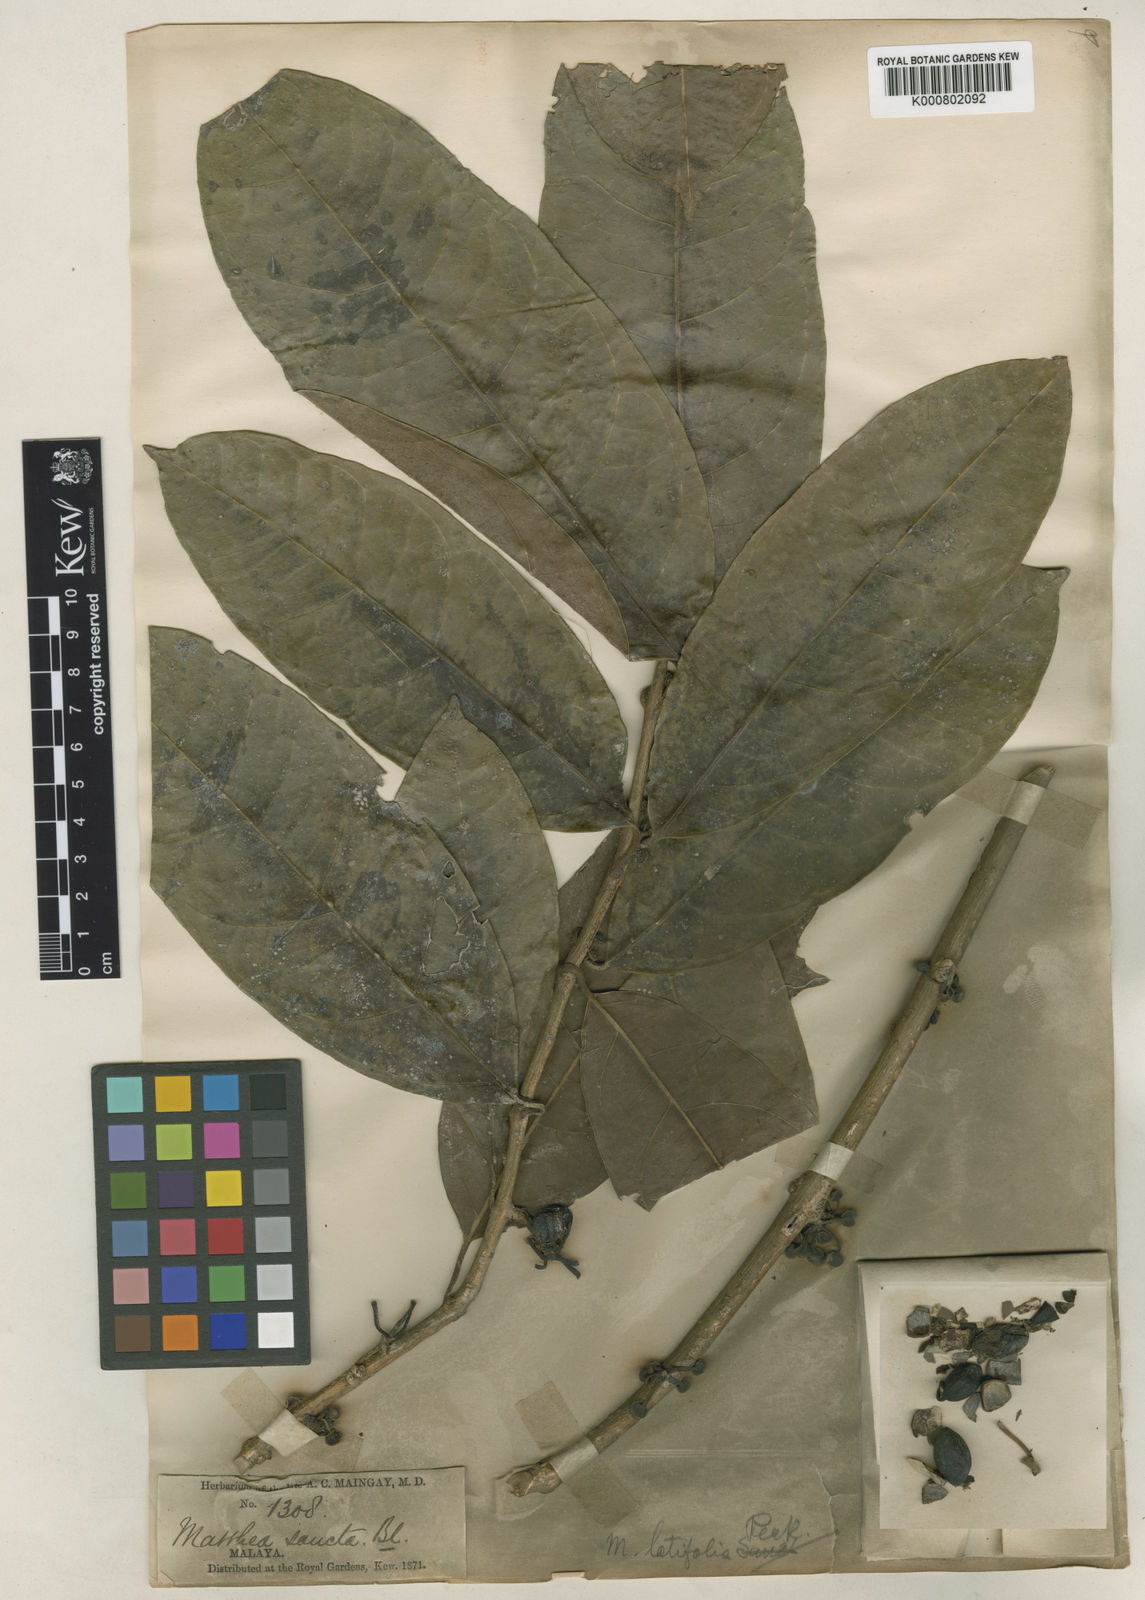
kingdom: Plantae
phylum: Tracheophyta
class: Magnoliopsida
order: Laurales
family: Monimiaceae
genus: Matthaea
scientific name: Matthaea sancta
